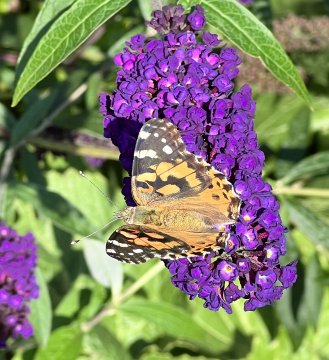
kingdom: Animalia
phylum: Arthropoda
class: Insecta
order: Lepidoptera
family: Nymphalidae
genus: Vanessa
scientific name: Vanessa cardui
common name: Painted Lady
